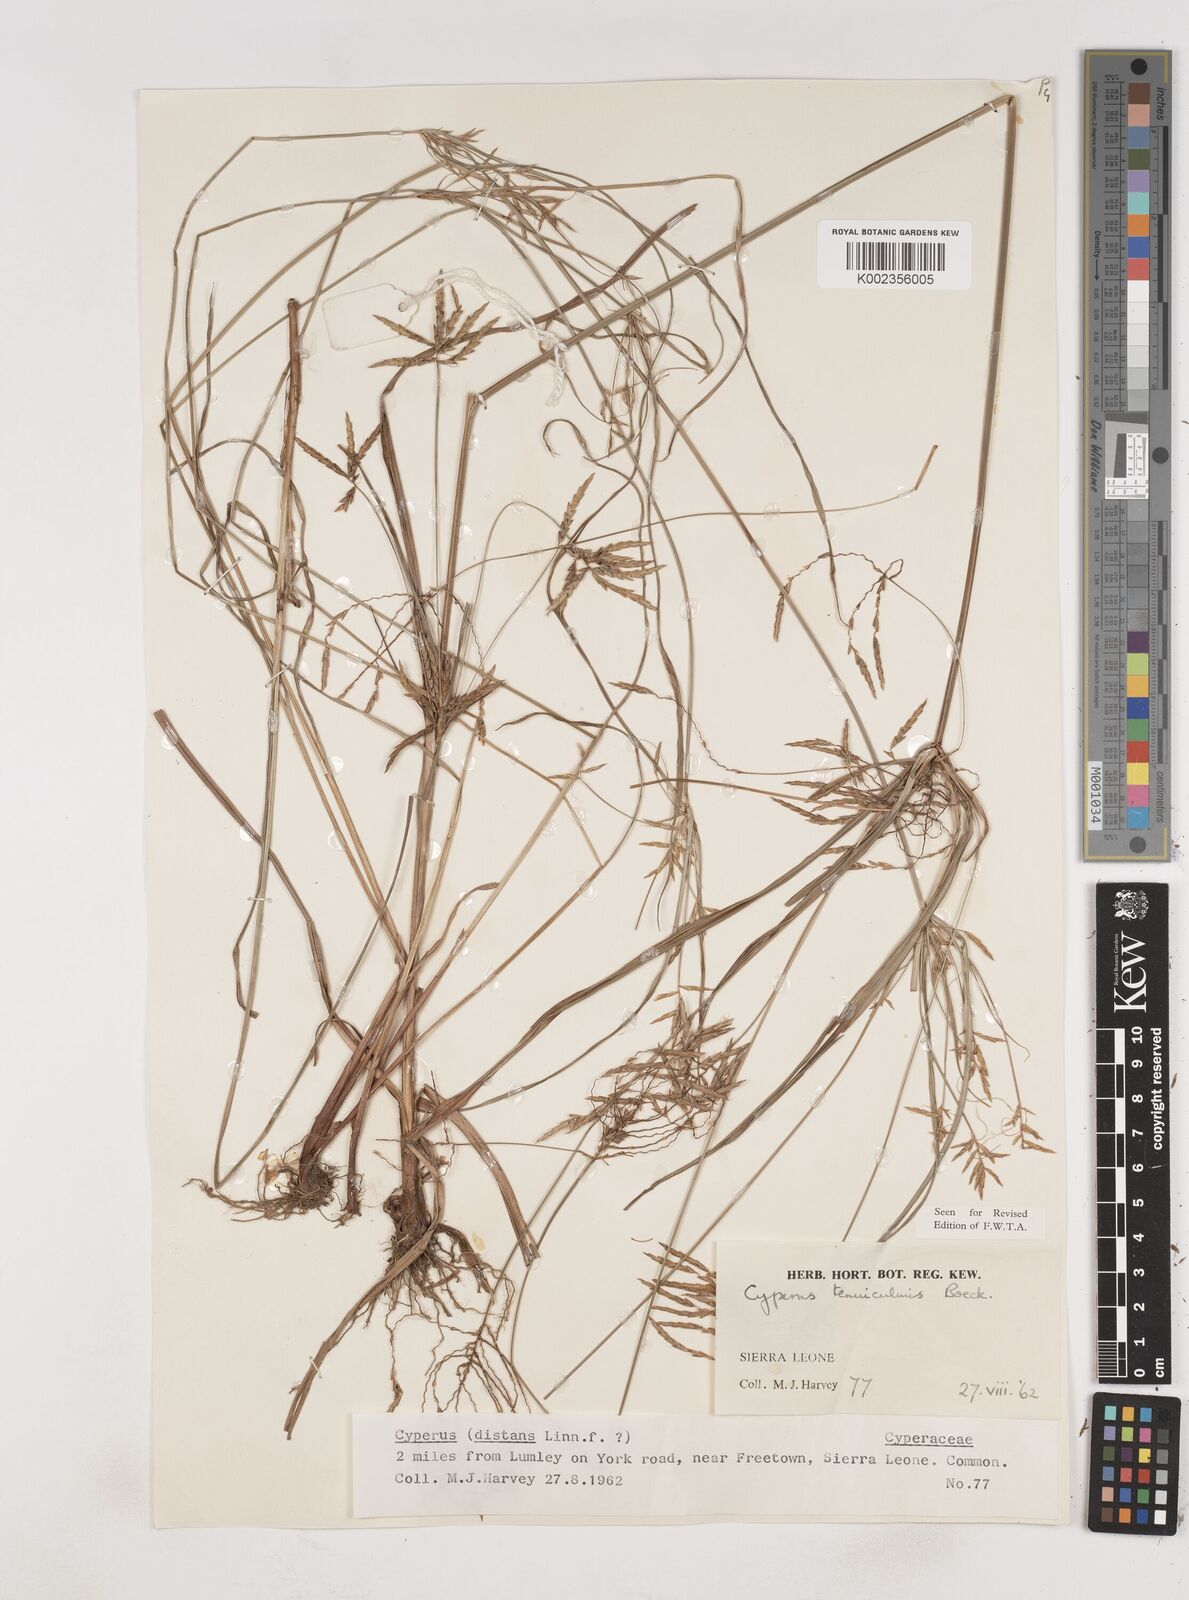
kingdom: Plantae
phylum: Tracheophyta
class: Liliopsida
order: Poales
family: Cyperaceae
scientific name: Cyperaceae
